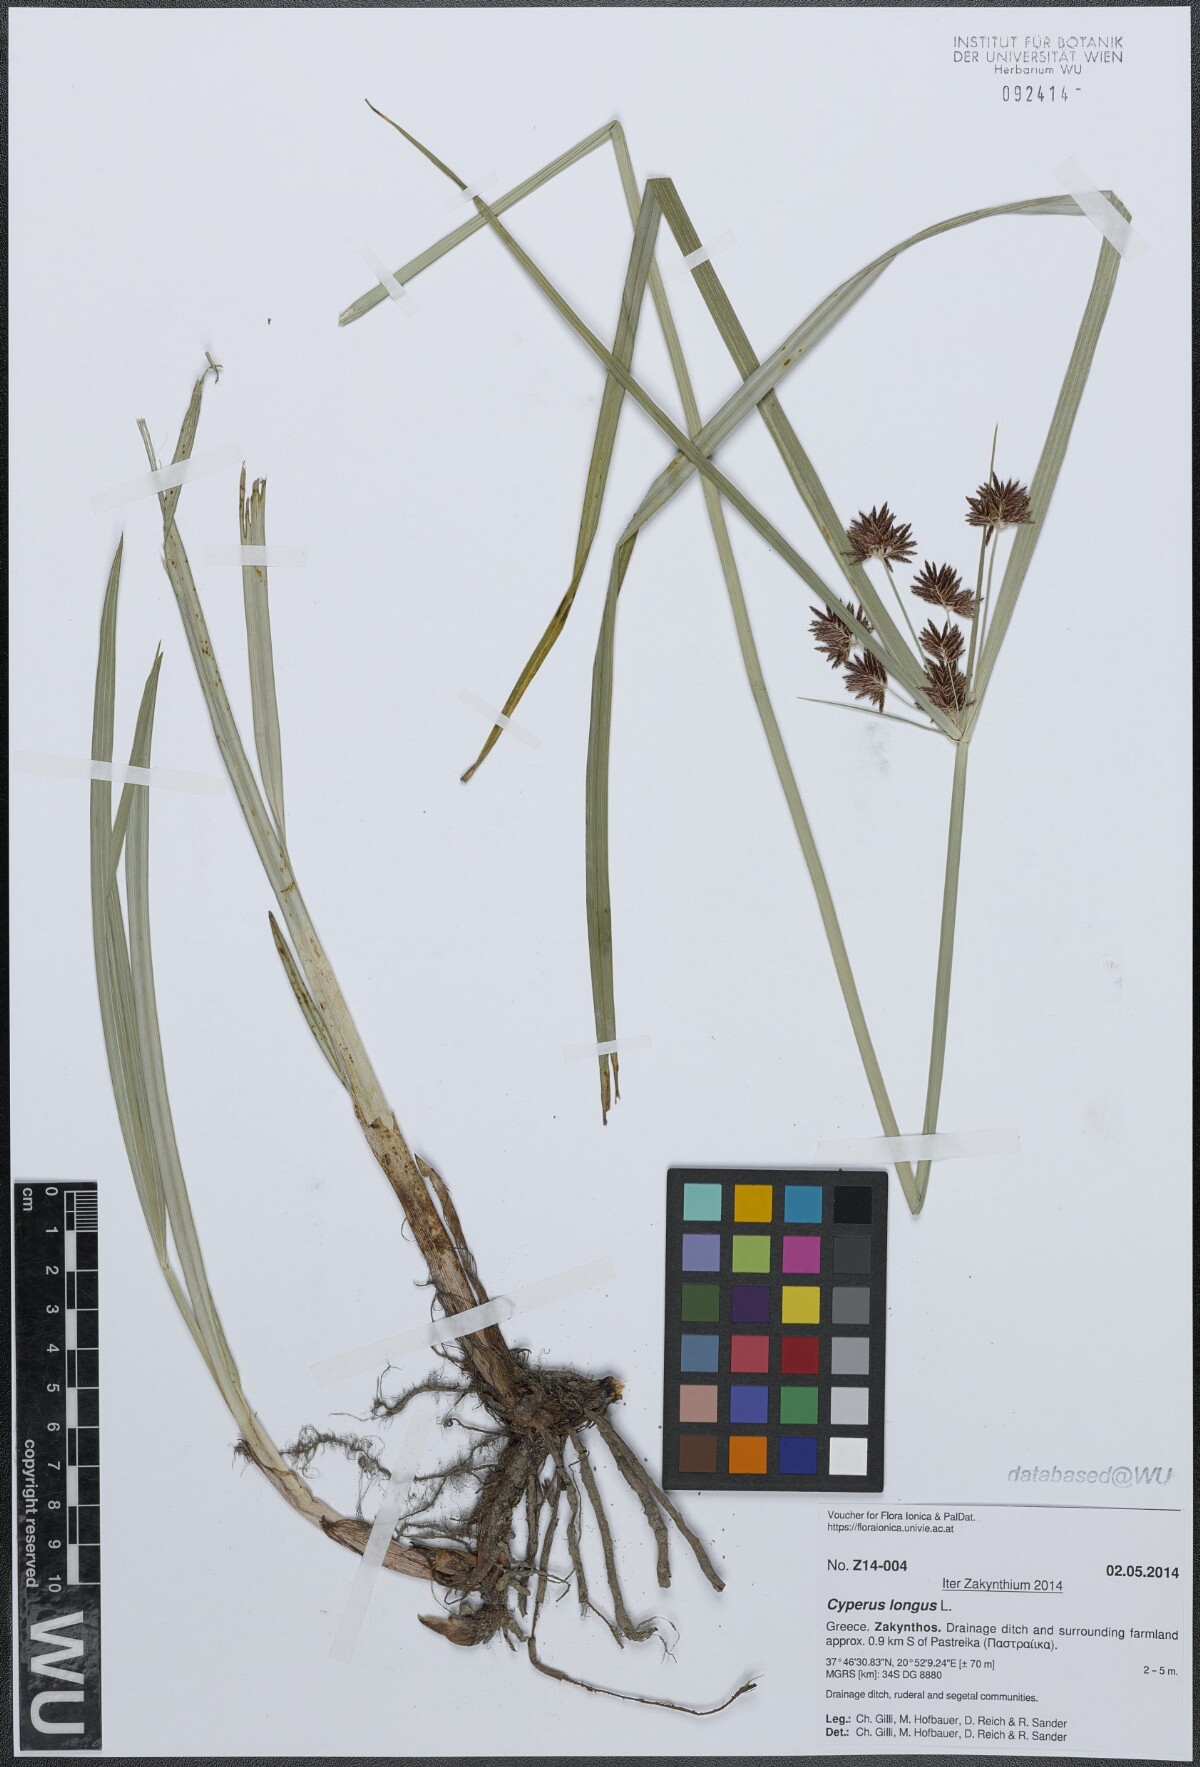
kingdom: Plantae
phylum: Tracheophyta
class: Liliopsida
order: Poales
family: Cyperaceae
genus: Cyperus
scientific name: Cyperus longus
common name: Galingale
